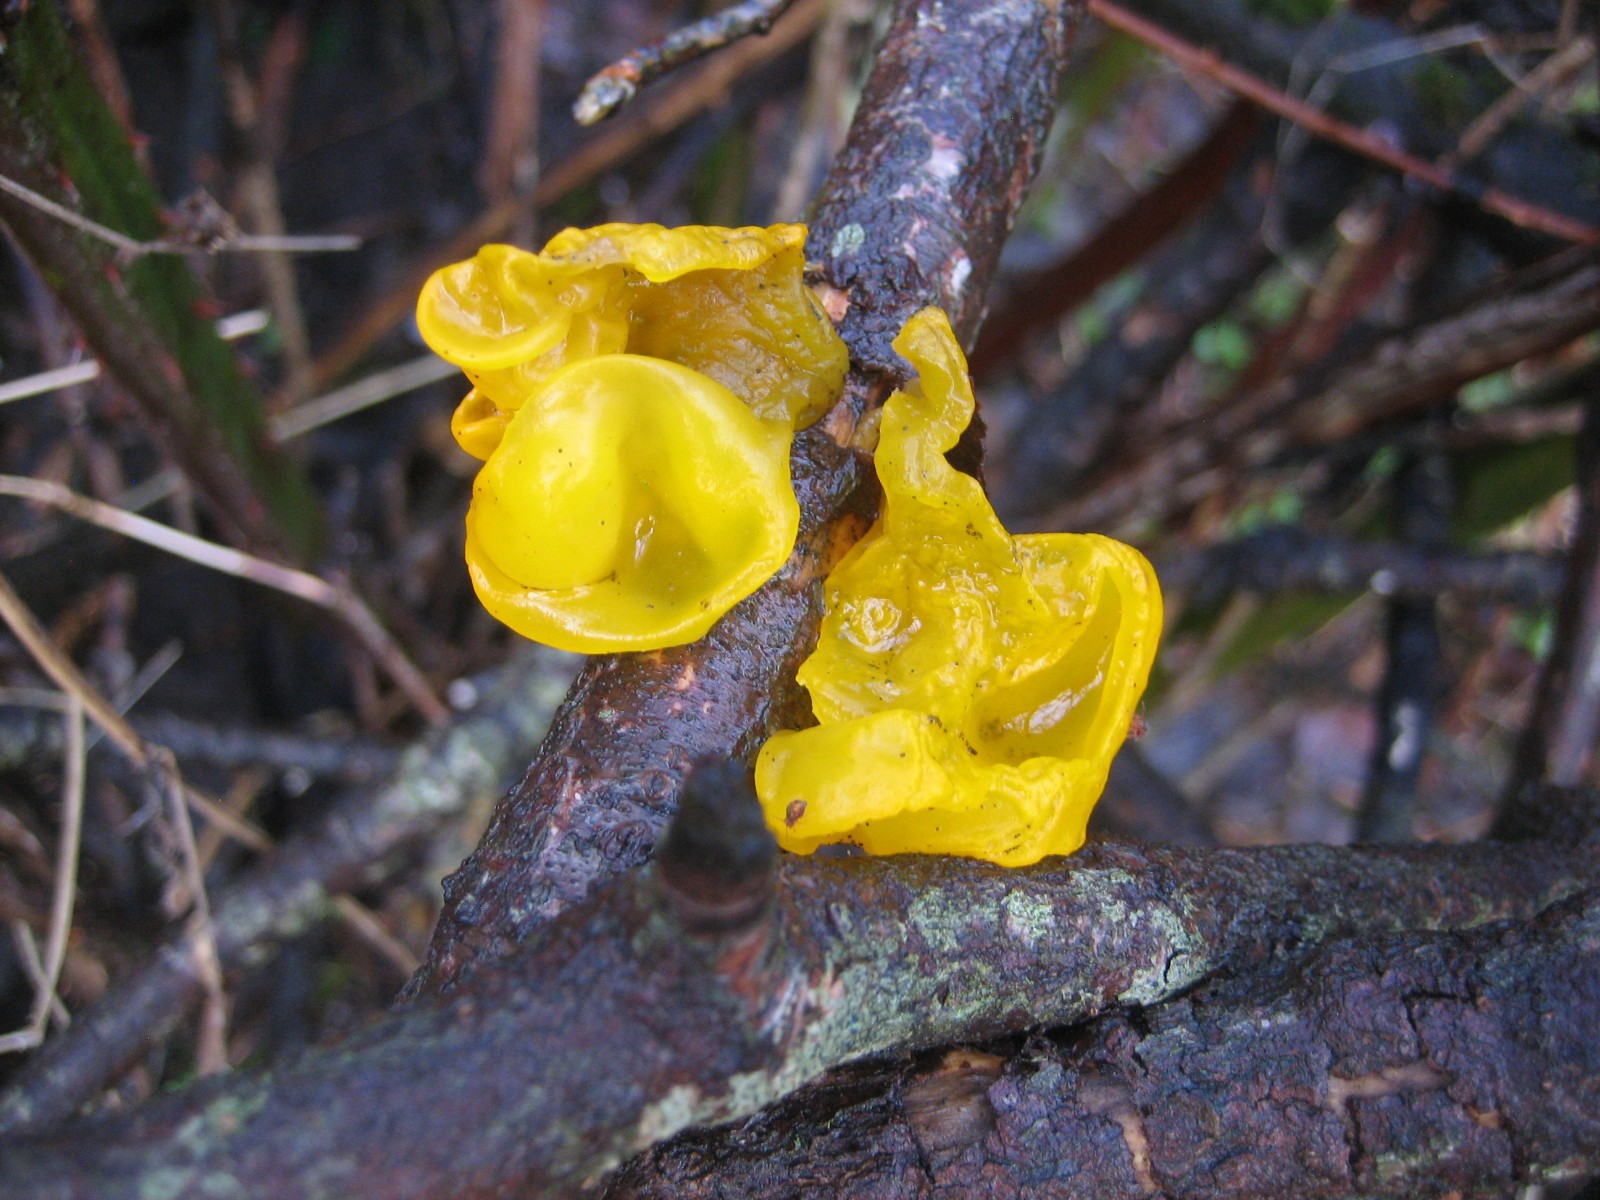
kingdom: Fungi
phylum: Basidiomycota
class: Tremellomycetes
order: Tremellales
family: Tremellaceae
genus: Tremella
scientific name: Tremella mesenterica
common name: gul bævresvamp
